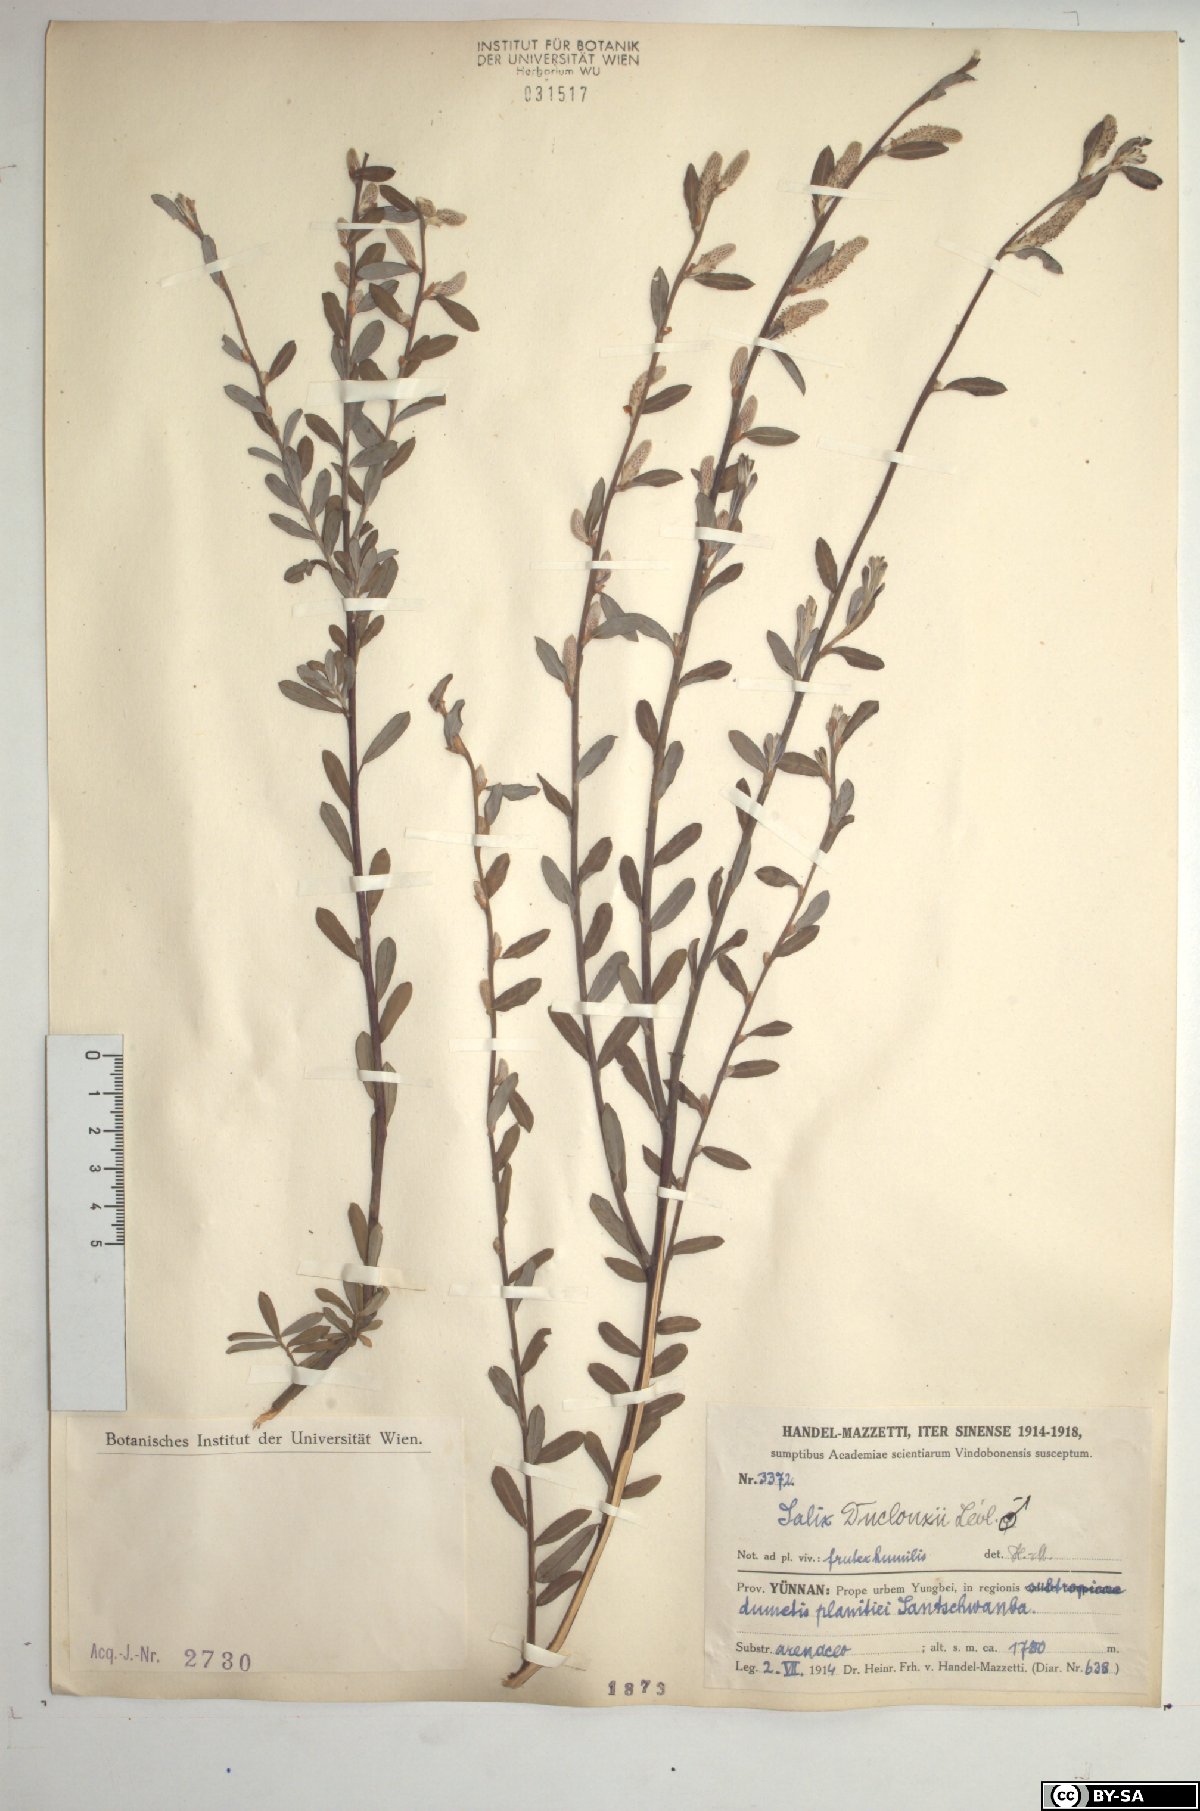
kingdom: Plantae
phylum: Tracheophyta
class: Magnoliopsida
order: Malpighiales
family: Salicaceae
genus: Salix
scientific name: Salix variegata
